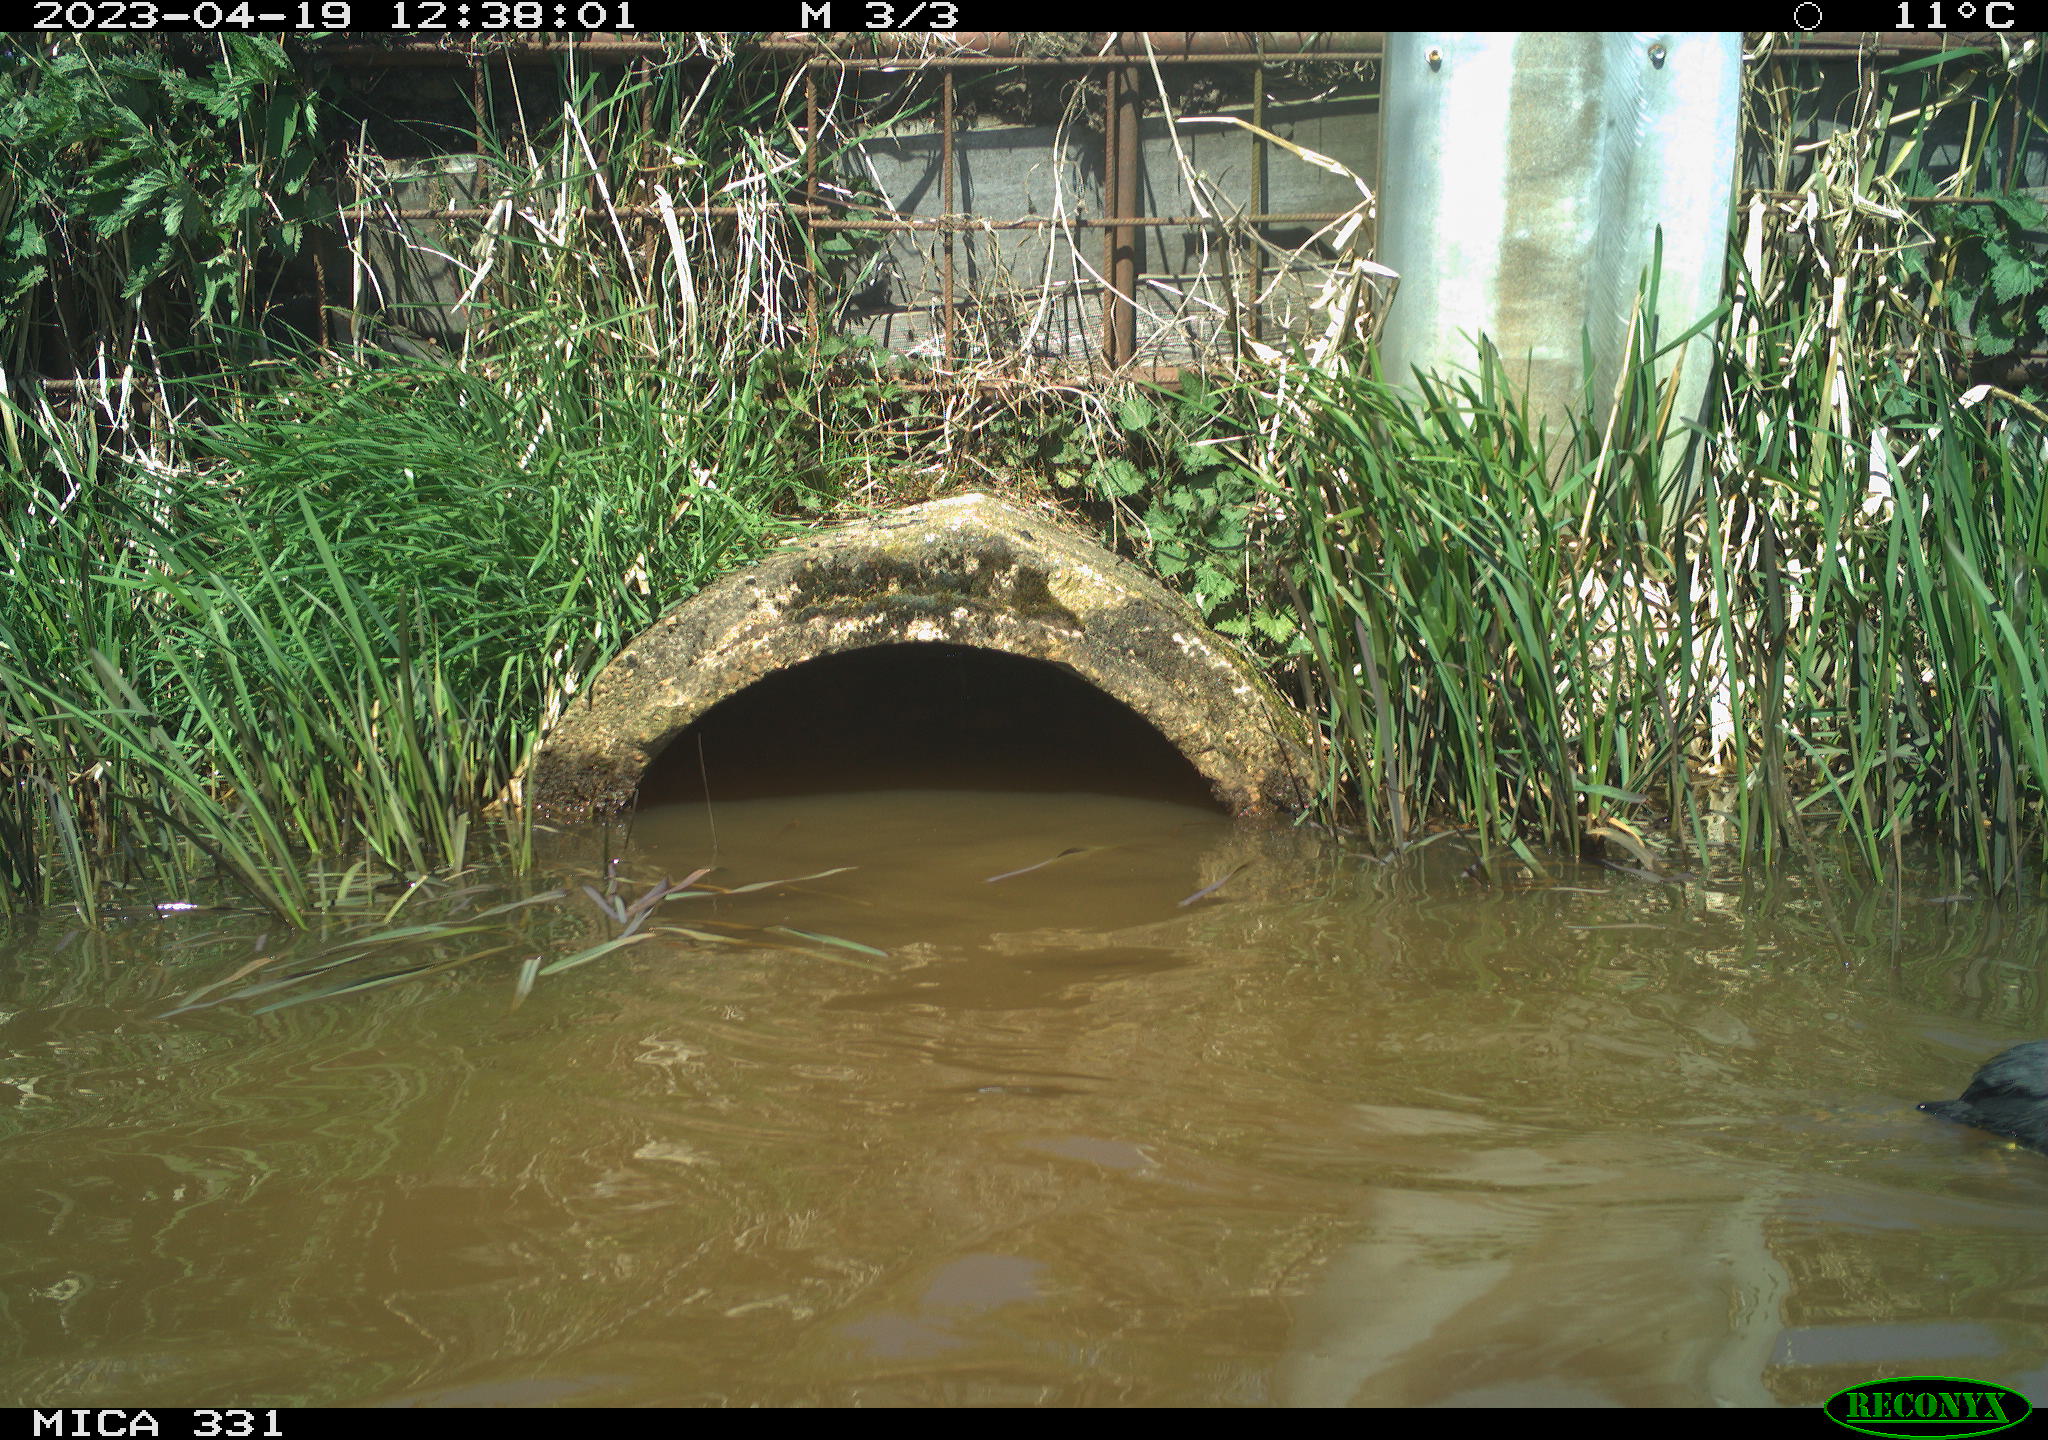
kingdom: Animalia
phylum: Chordata
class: Aves
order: Gruiformes
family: Rallidae
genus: Fulica
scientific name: Fulica atra
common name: Eurasian coot
